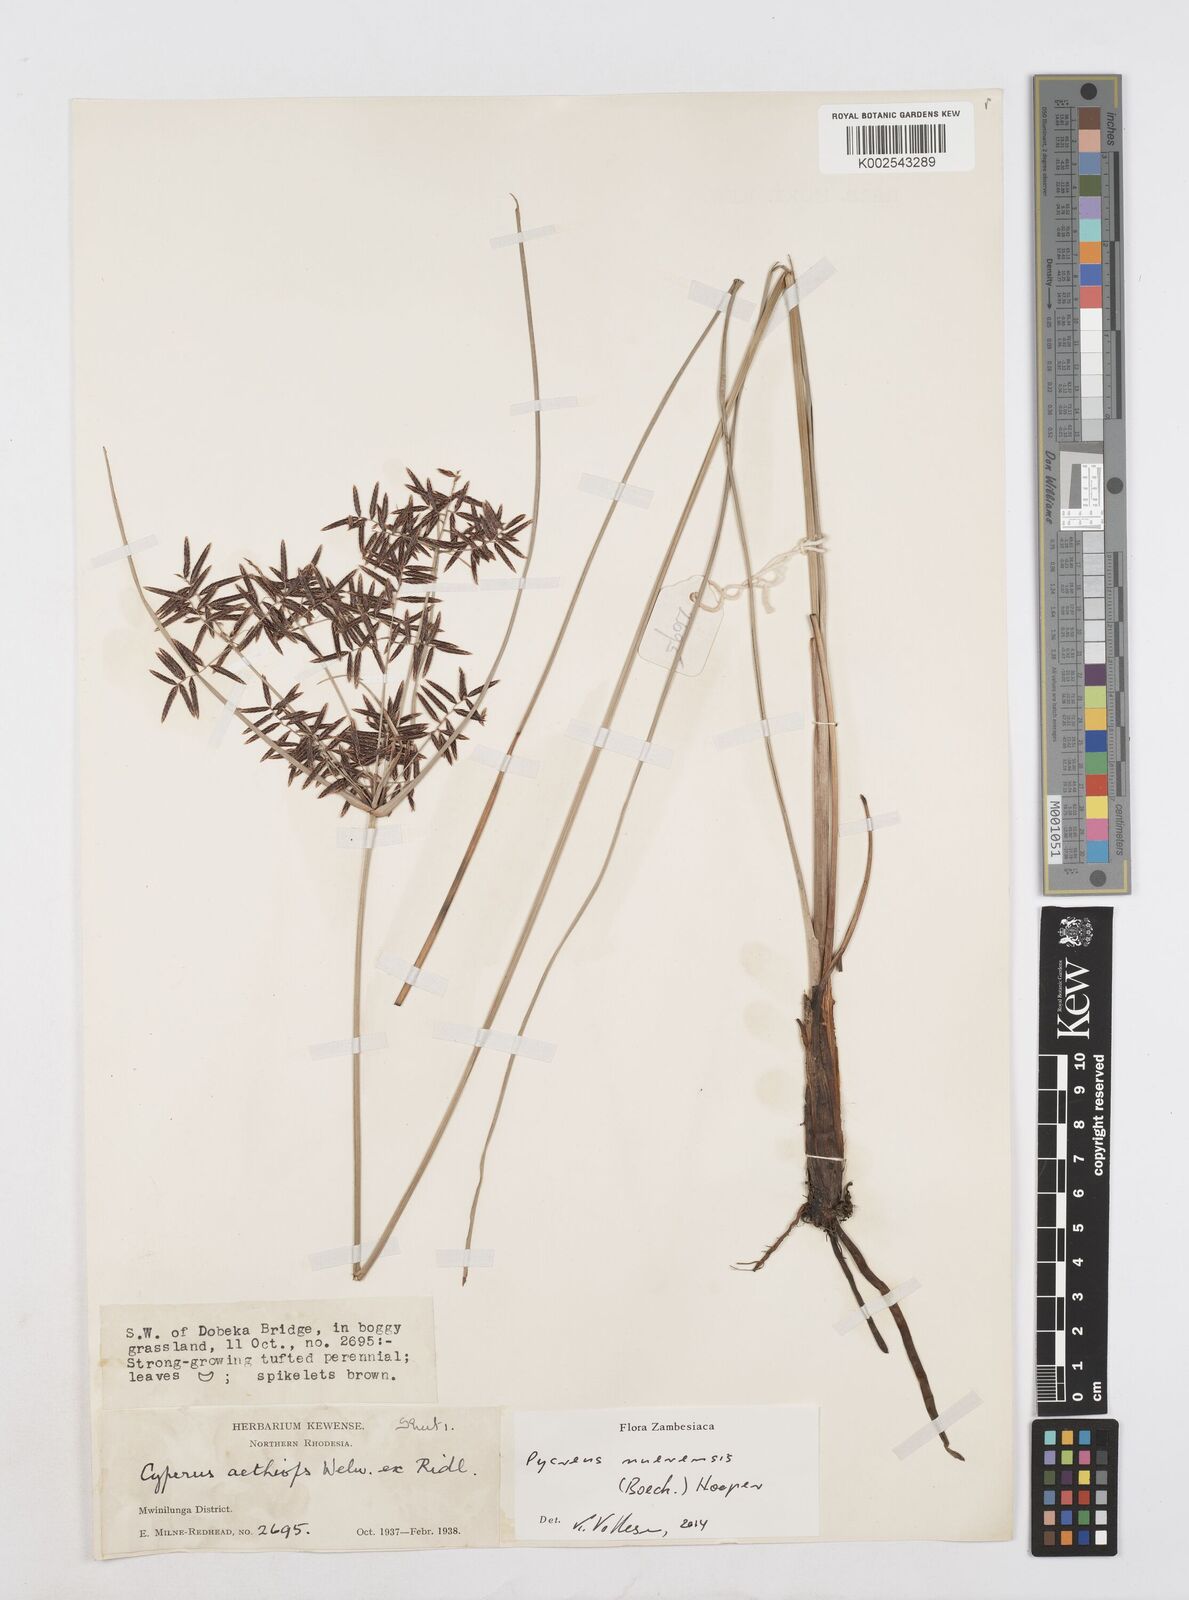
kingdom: Plantae
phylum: Tracheophyta
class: Liliopsida
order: Poales
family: Cyperaceae
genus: Cyperus
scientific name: Cyperus nuerensis
